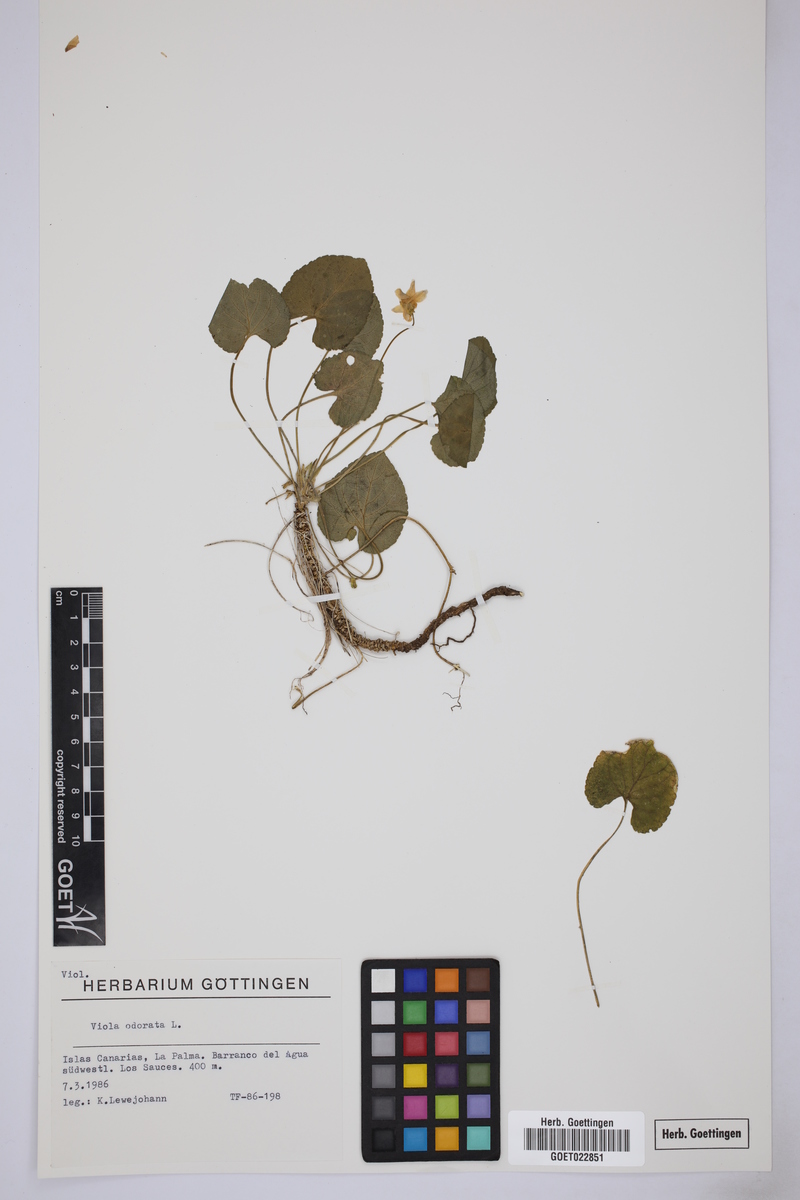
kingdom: Plantae
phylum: Tracheophyta
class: Magnoliopsida
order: Malpighiales
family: Violaceae
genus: Viola
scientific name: Viola odorata
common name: Sweet violet
